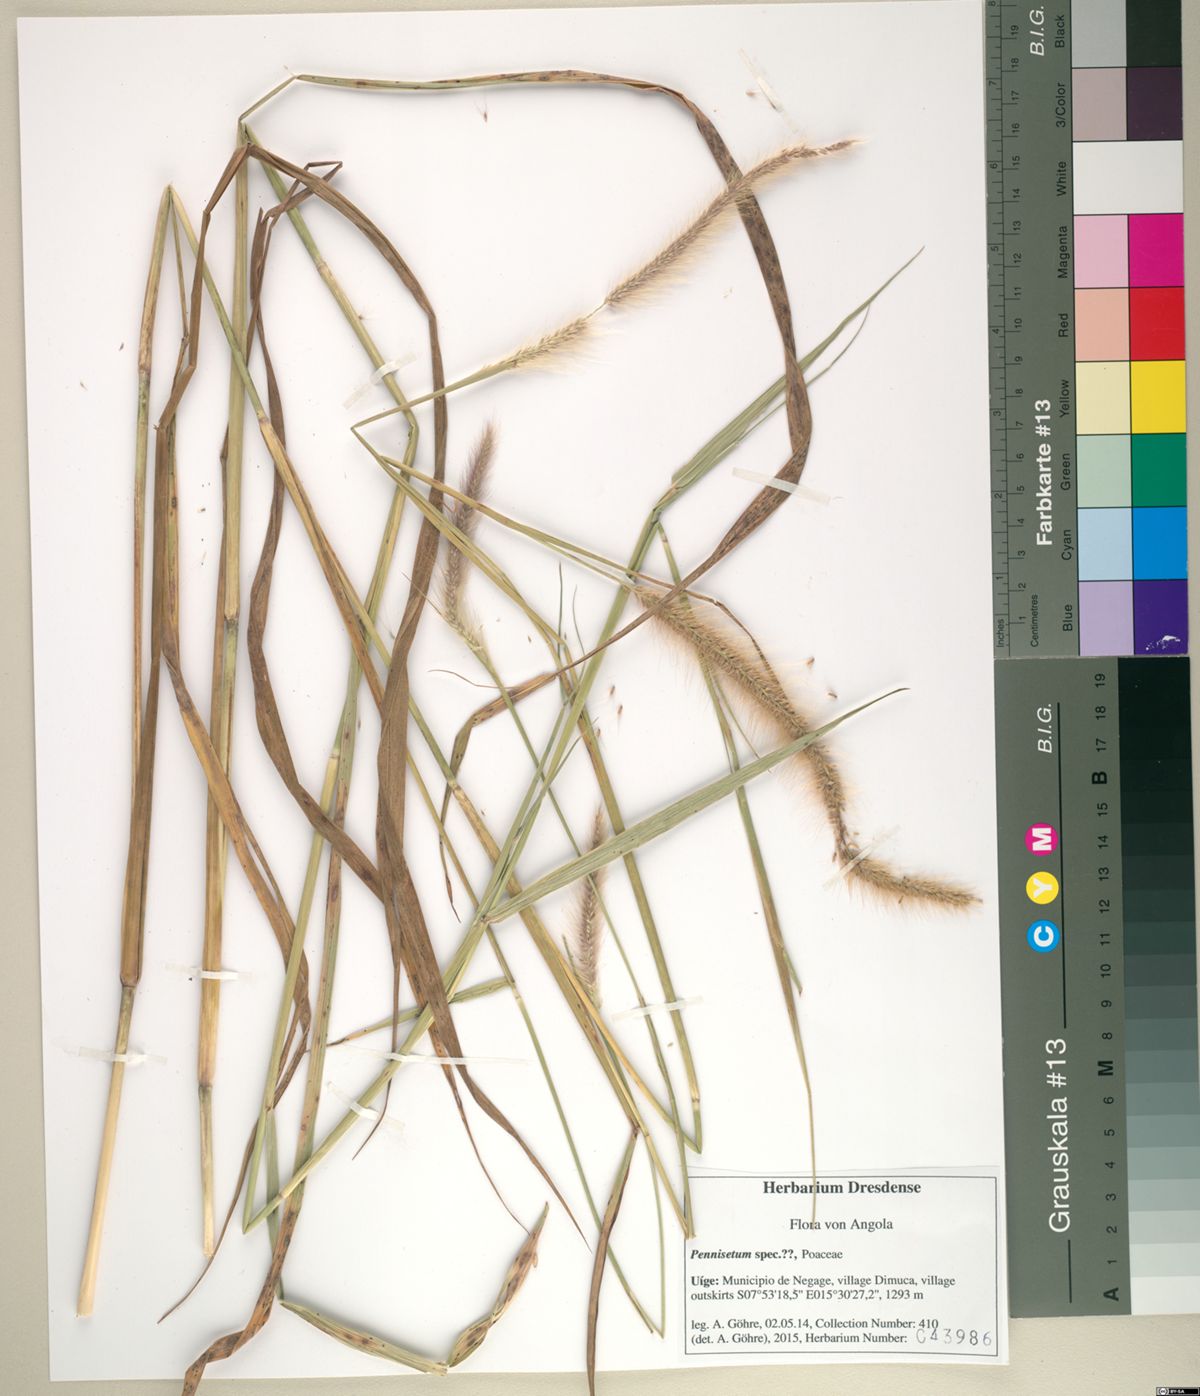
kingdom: Plantae
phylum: Tracheophyta
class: Liliopsida
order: Poales
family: Poaceae
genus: Setaria
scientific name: Setaria parviflora
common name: Knotroot bristle-grass
